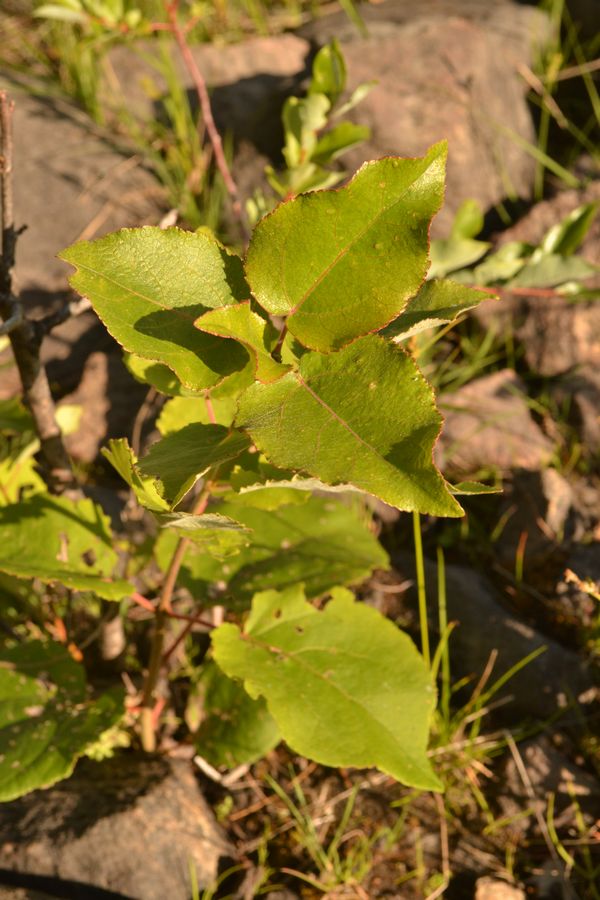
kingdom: Plantae
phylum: Tracheophyta
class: Magnoliopsida
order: Malpighiales
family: Salicaceae
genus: Populus
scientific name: Populus tremula
